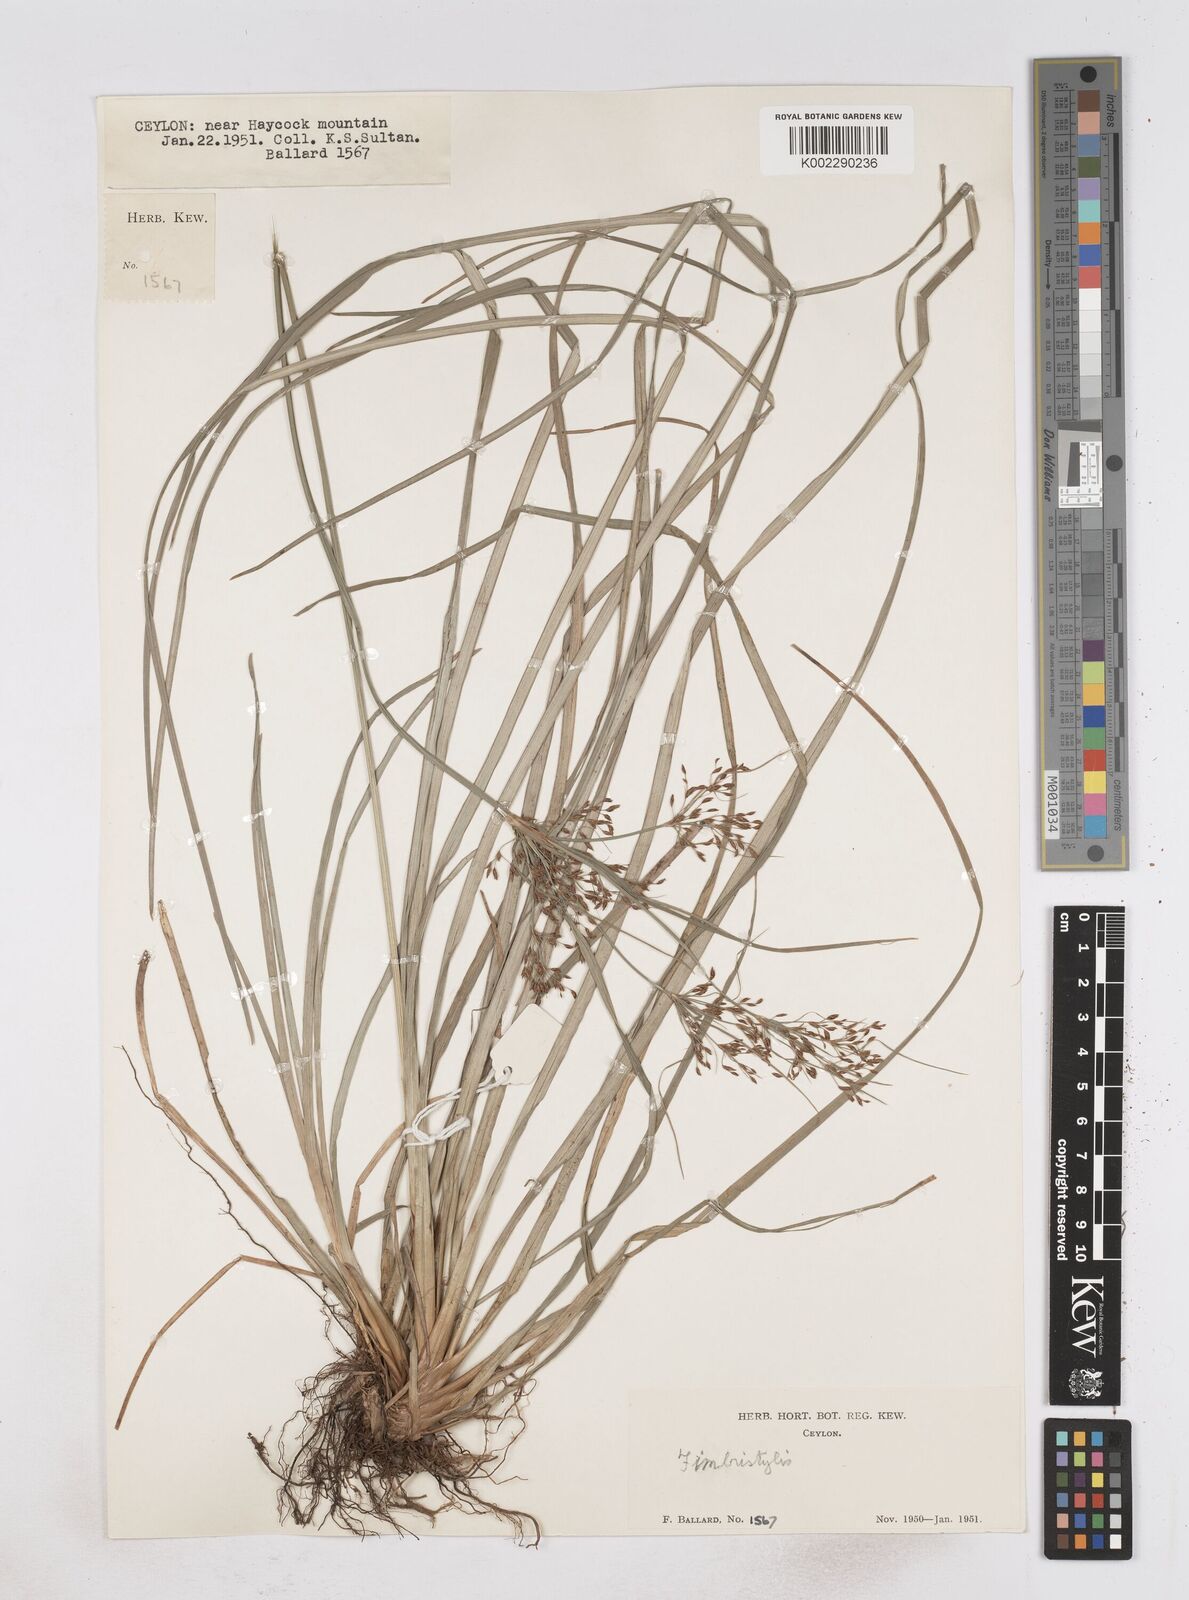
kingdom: Plantae
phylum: Tracheophyta
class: Liliopsida
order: Poales
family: Cyperaceae
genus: Fimbristylis
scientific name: Fimbristylis
